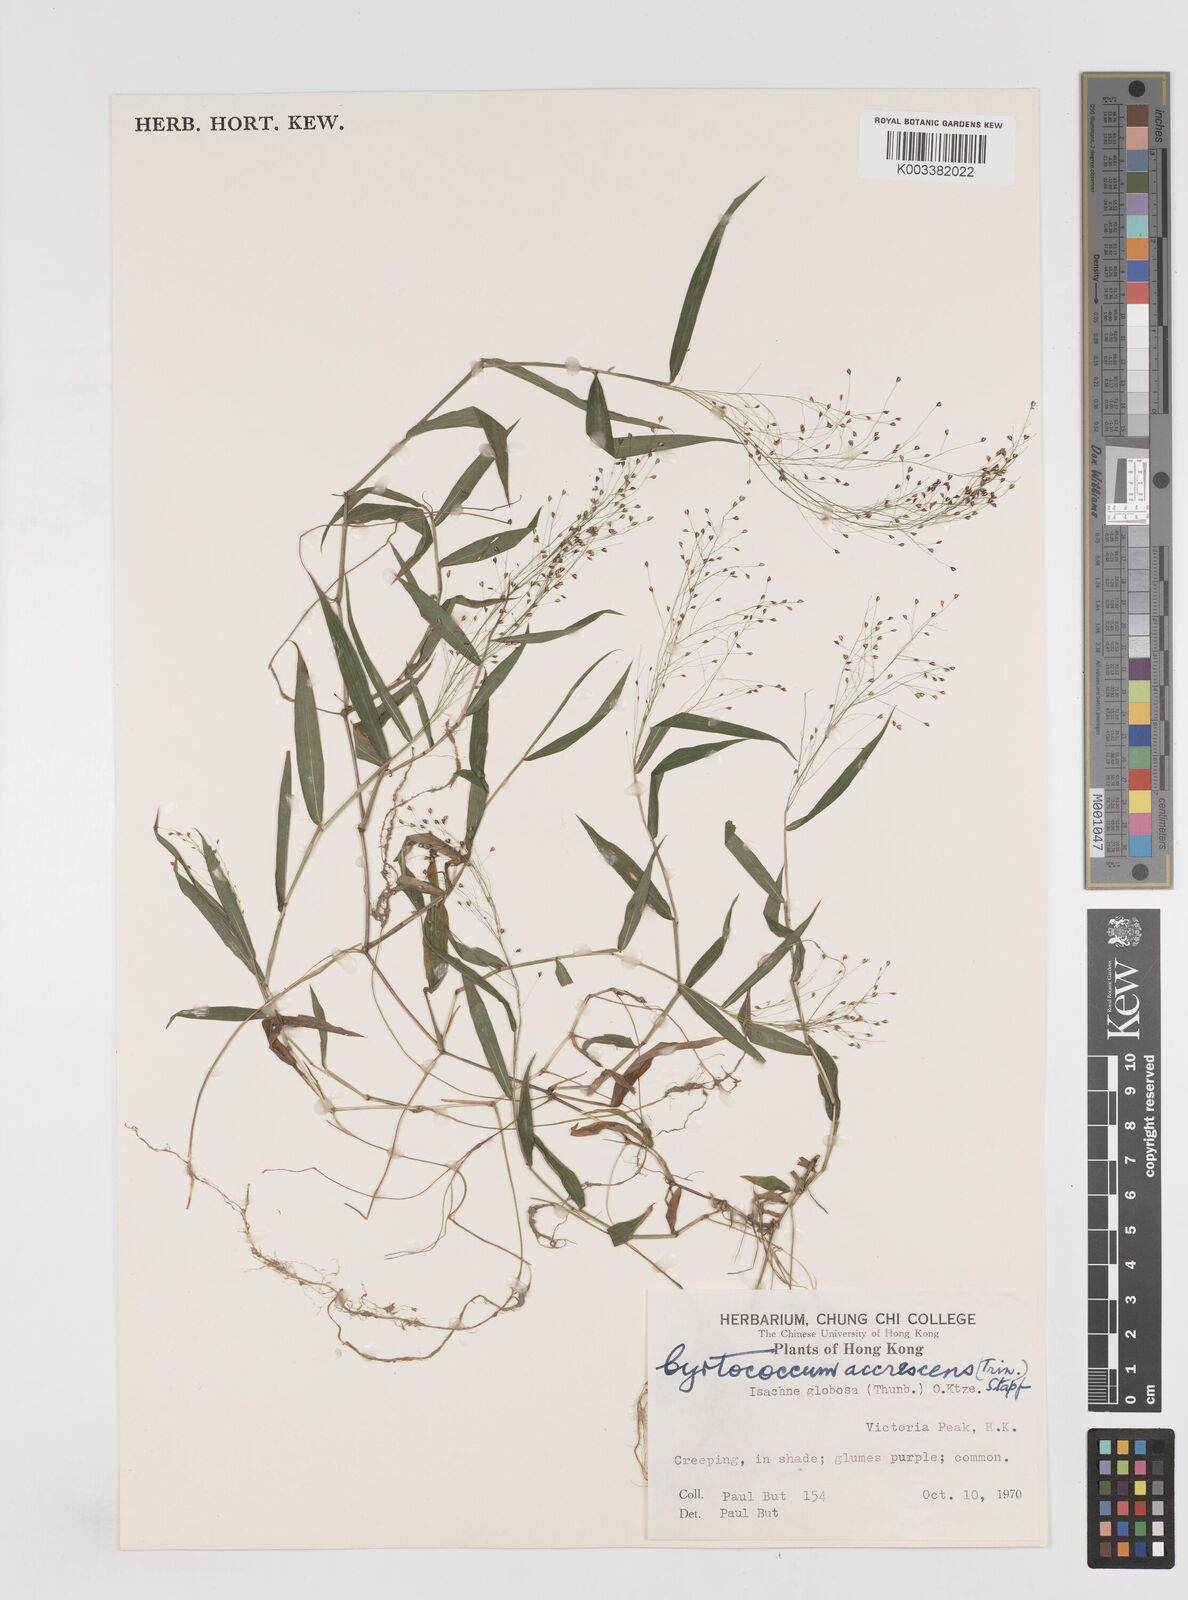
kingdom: Plantae
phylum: Tracheophyta
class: Liliopsida
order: Poales
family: Poaceae
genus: Cyrtococcum
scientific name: Cyrtococcum patens
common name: Broad-leaved bowgrass
